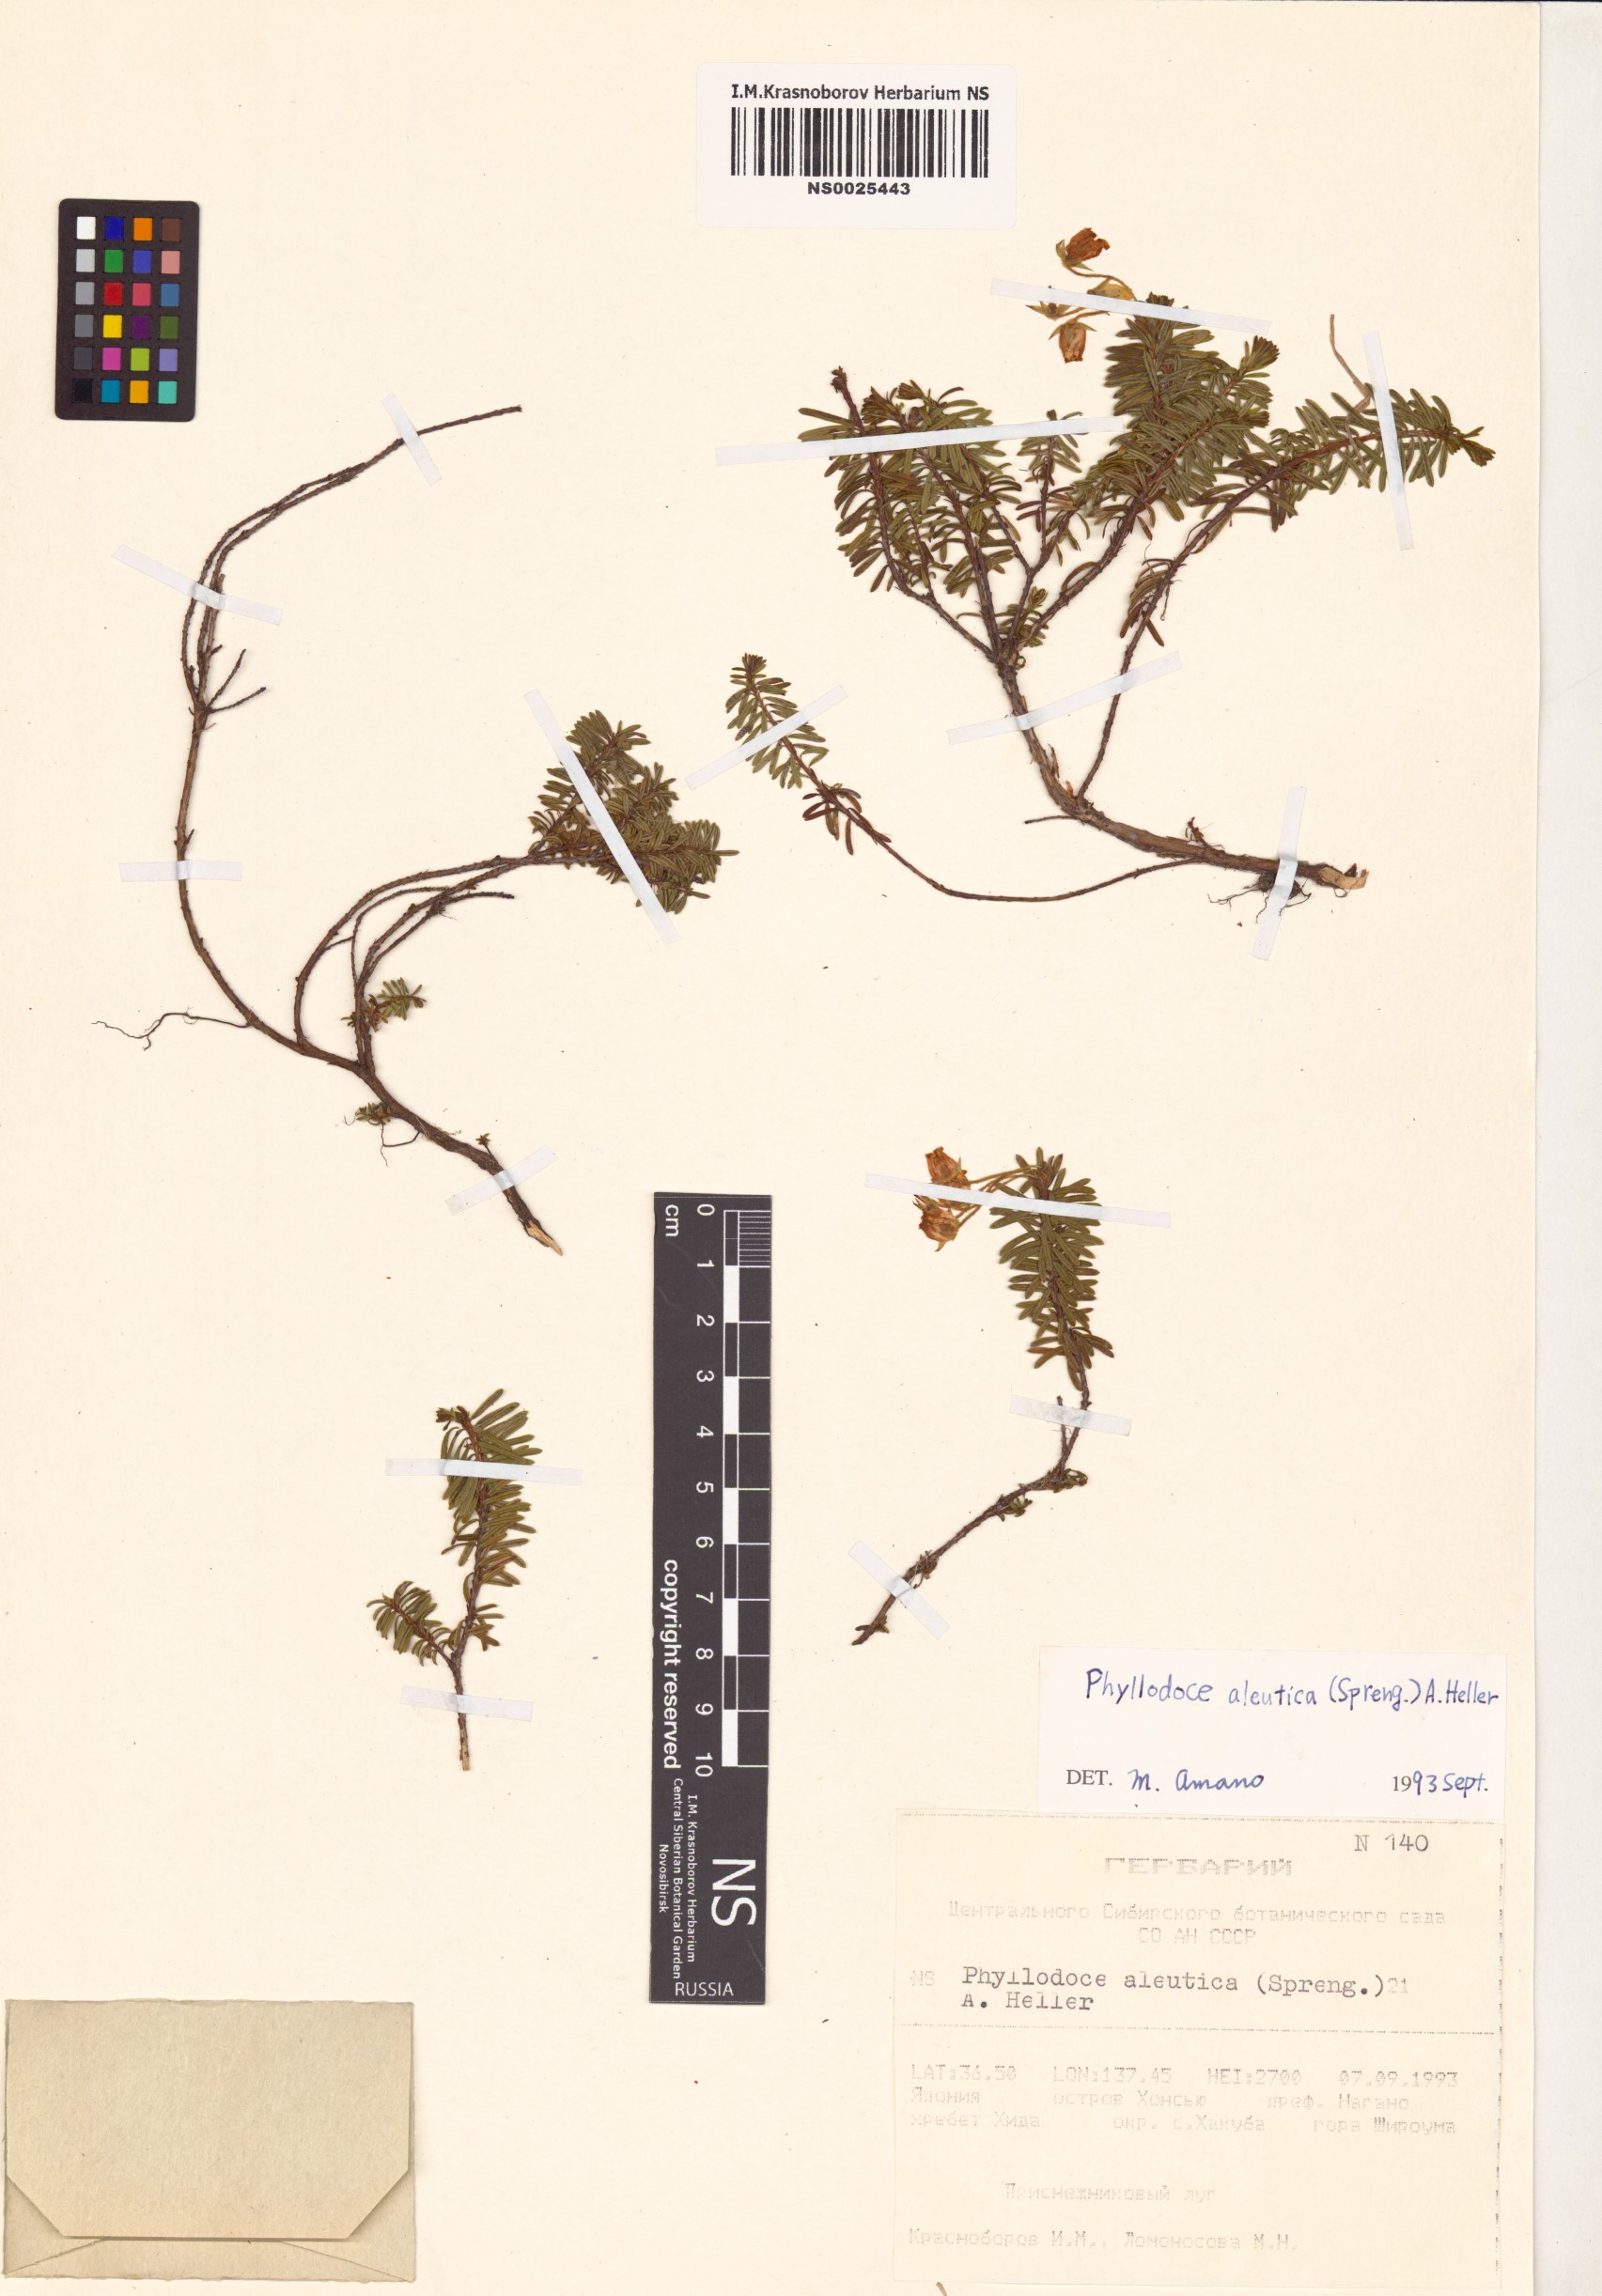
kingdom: Plantae
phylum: Tracheophyta
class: Magnoliopsida
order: Ericales
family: Ericaceae
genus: Phyllodoce
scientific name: Phyllodoce aleutica
